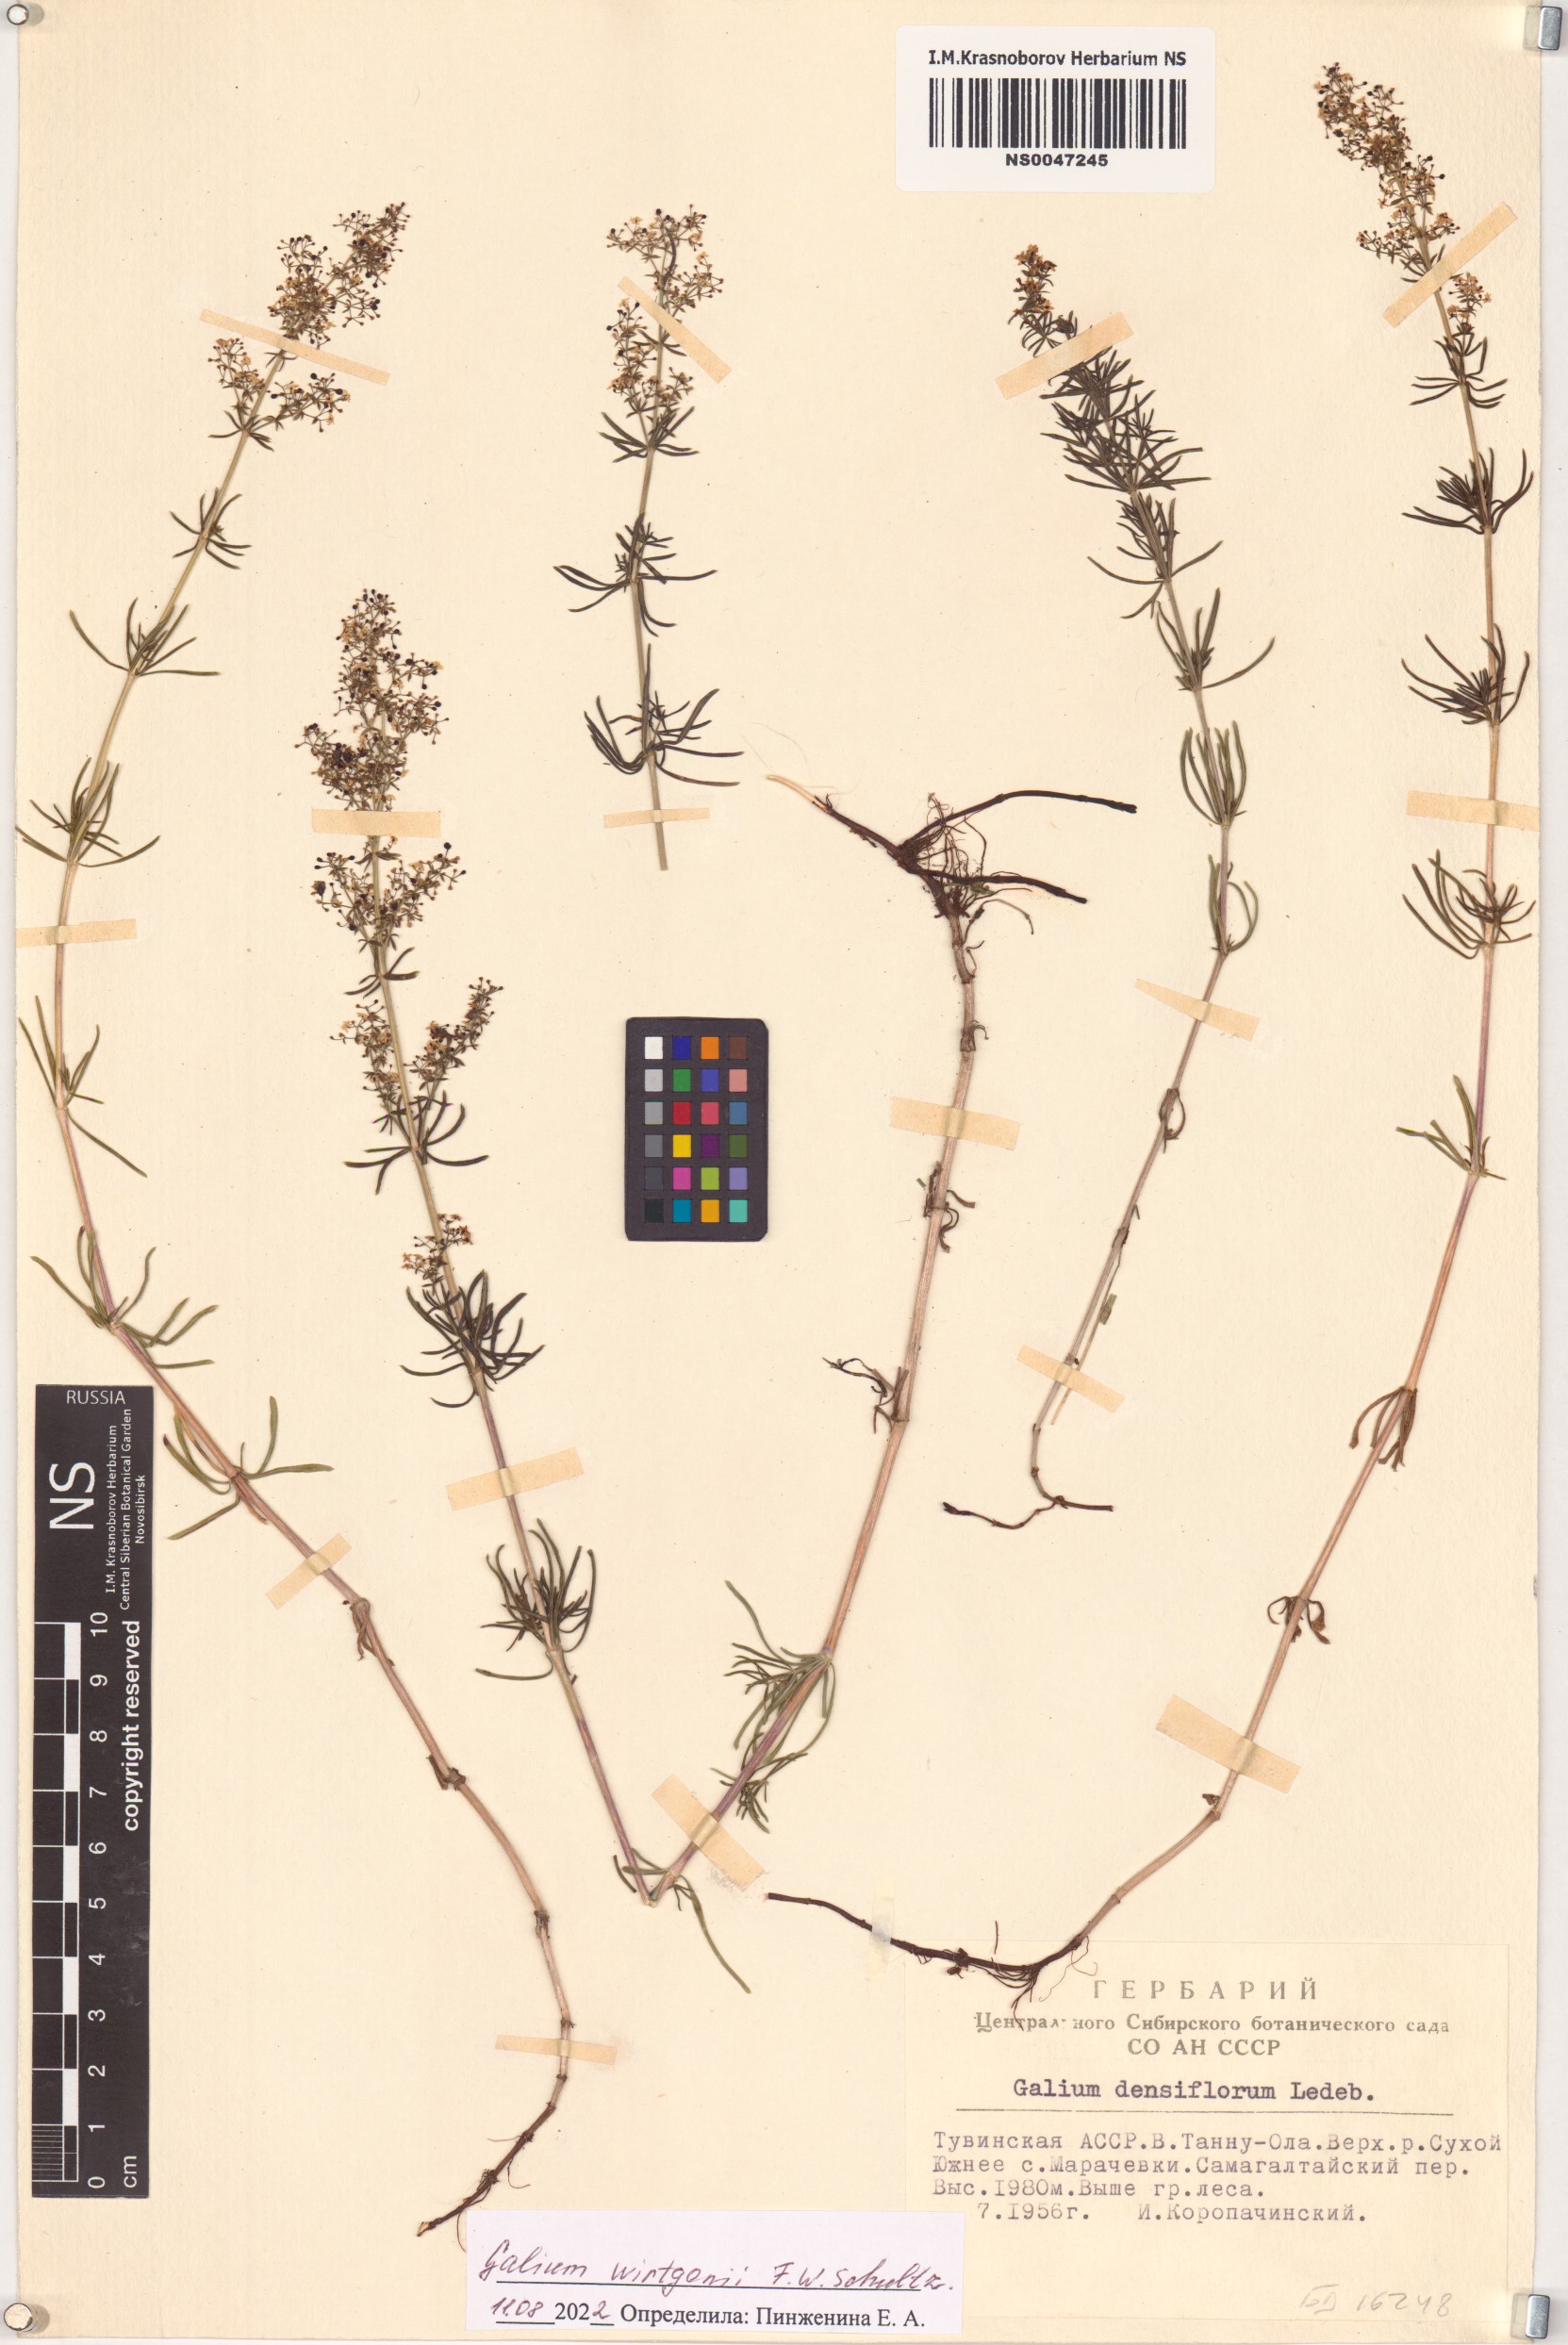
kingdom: Plantae
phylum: Tracheophyta
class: Magnoliopsida
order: Gentianales
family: Rubiaceae
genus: Galium
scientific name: Galium verum
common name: Lady's bedstraw
